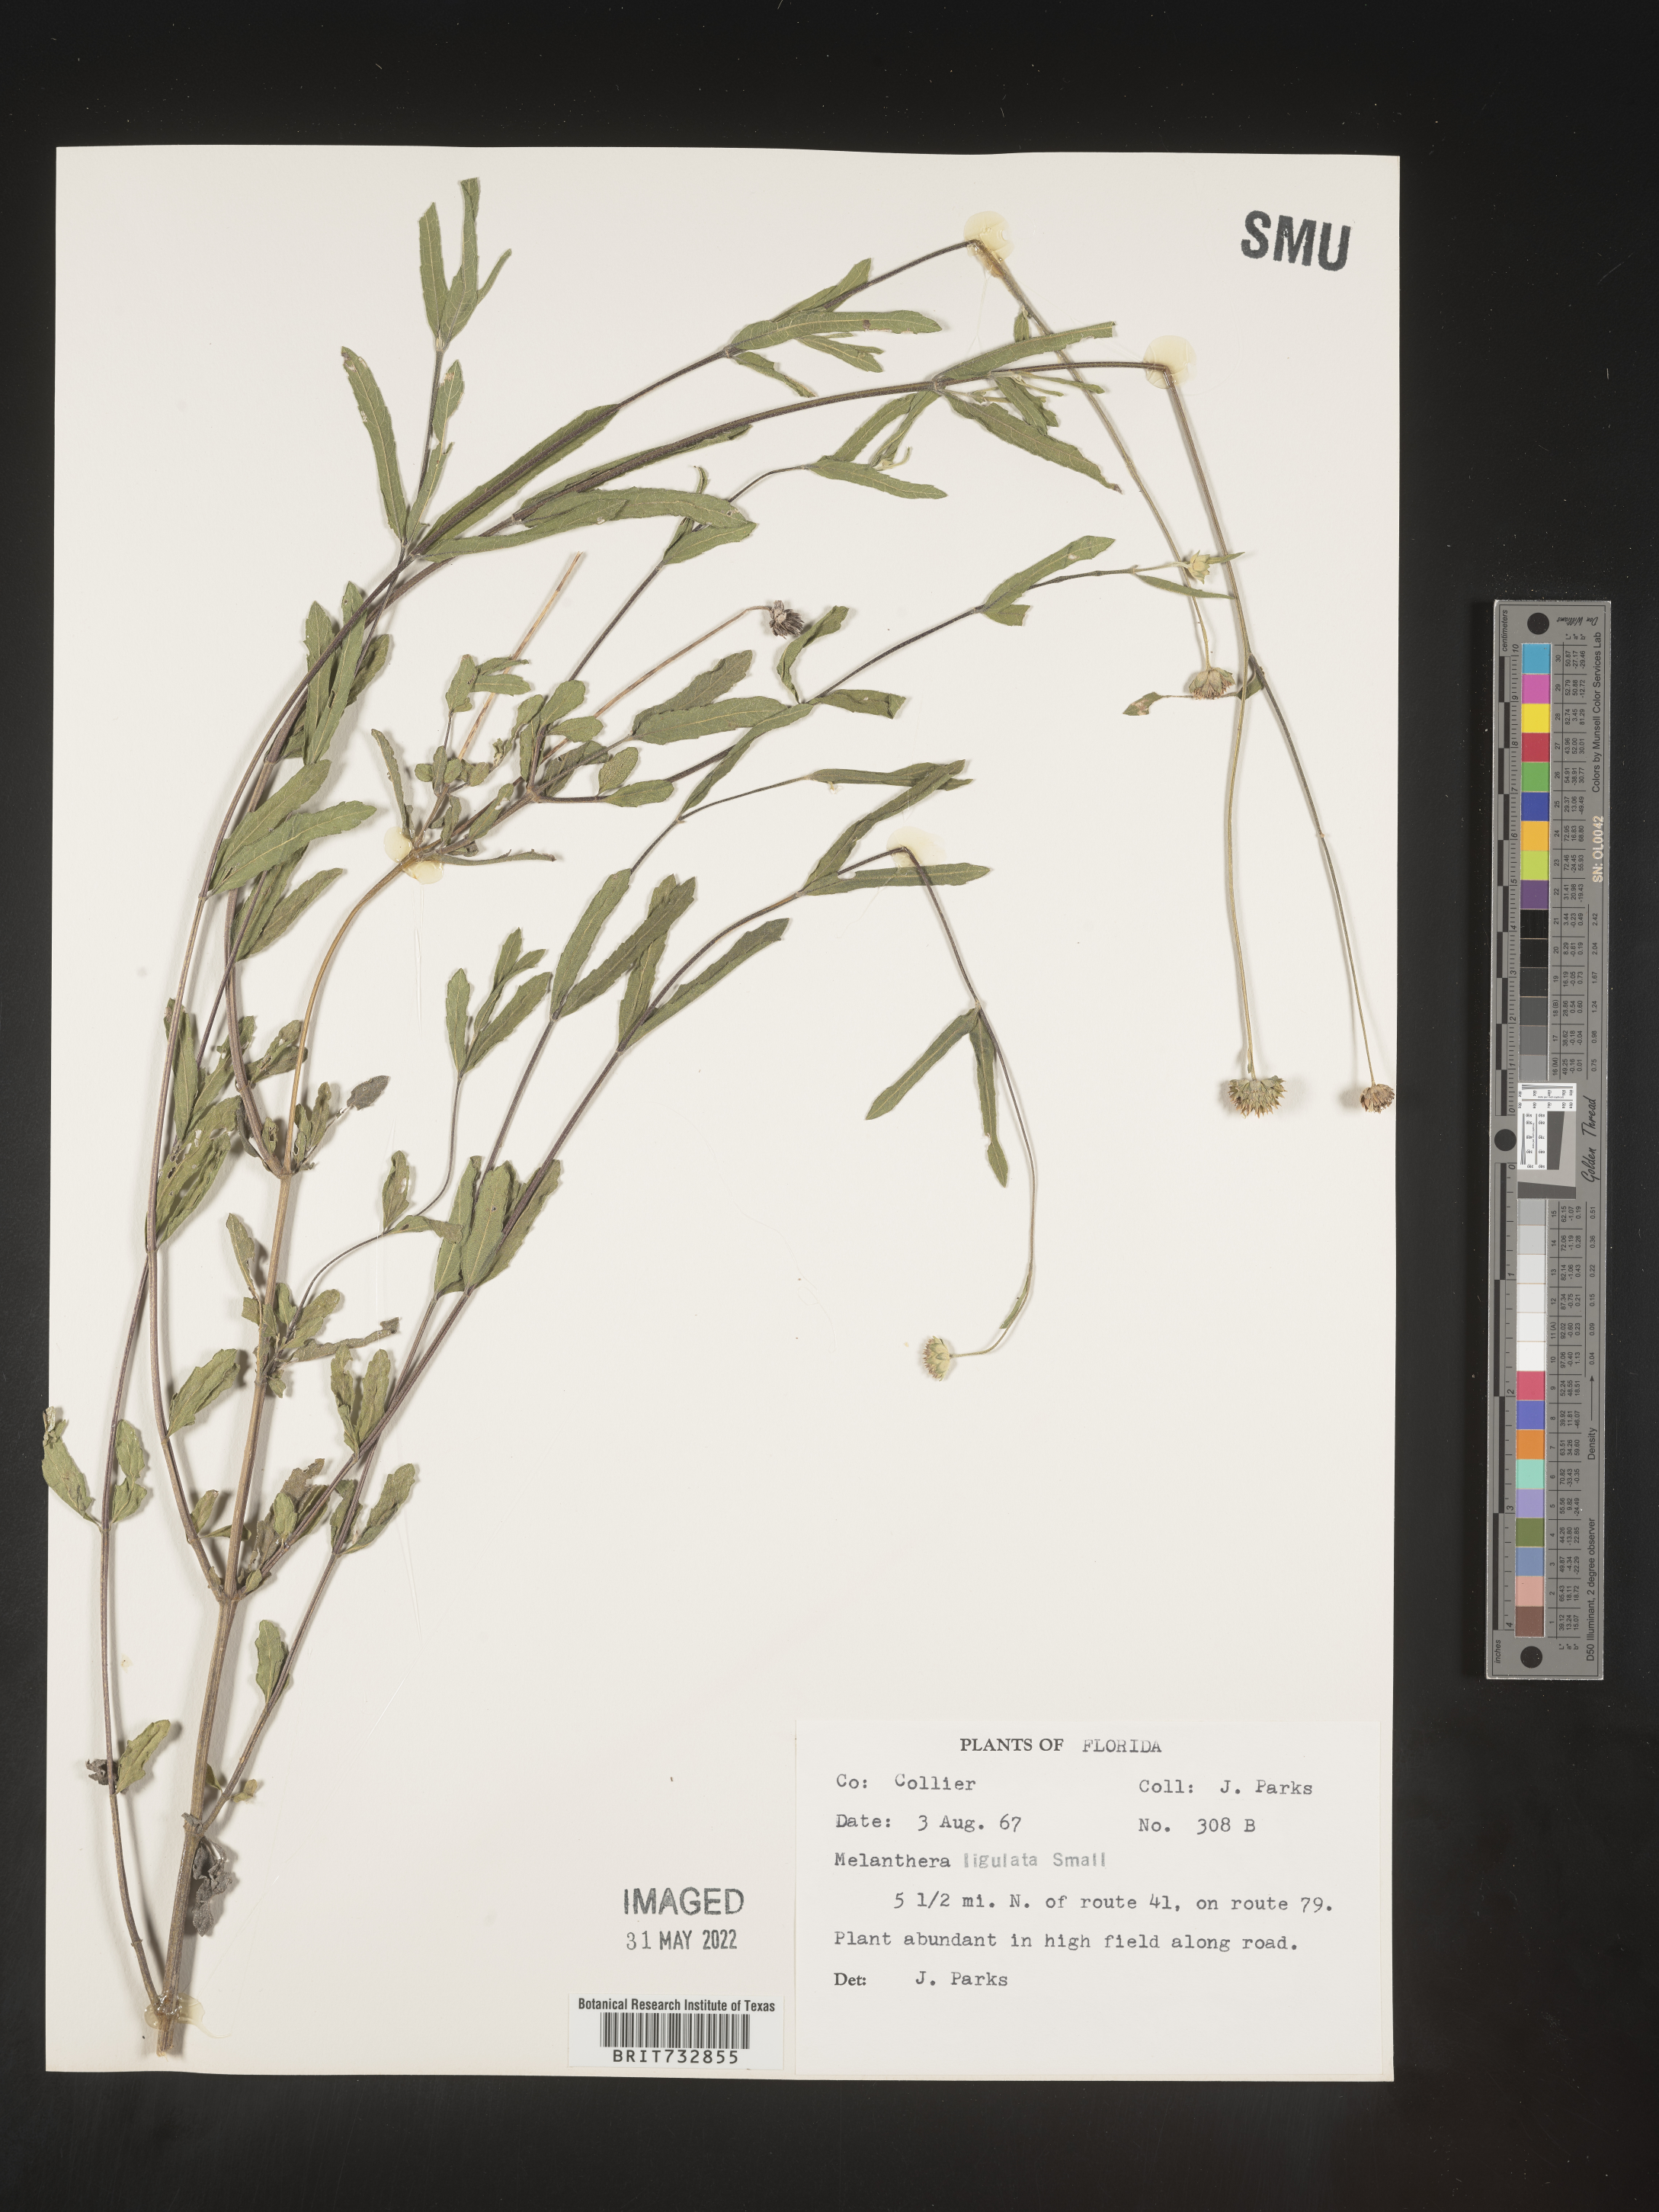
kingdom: Plantae
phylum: Tracheophyta
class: Magnoliopsida
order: Asterales
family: Asteraceae
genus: Melanthera
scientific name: Melanthera nivea
